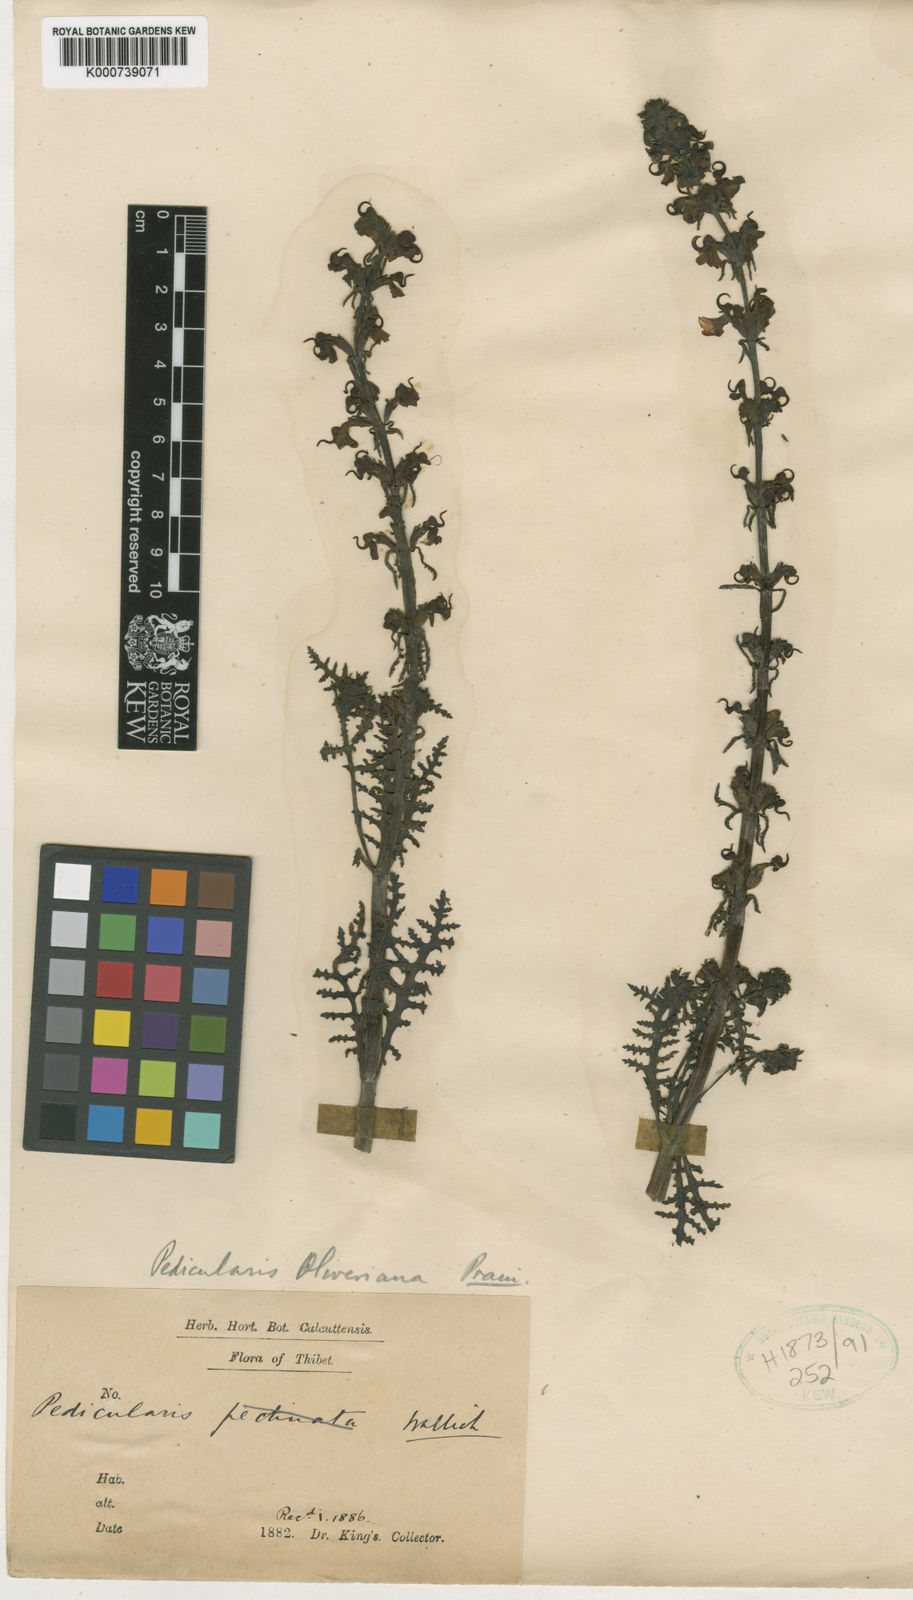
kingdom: Plantae
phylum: Tracheophyta
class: Magnoliopsida
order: Lamiales
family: Orobanchaceae
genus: Pedicularis
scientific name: Pedicularis oliveriana
